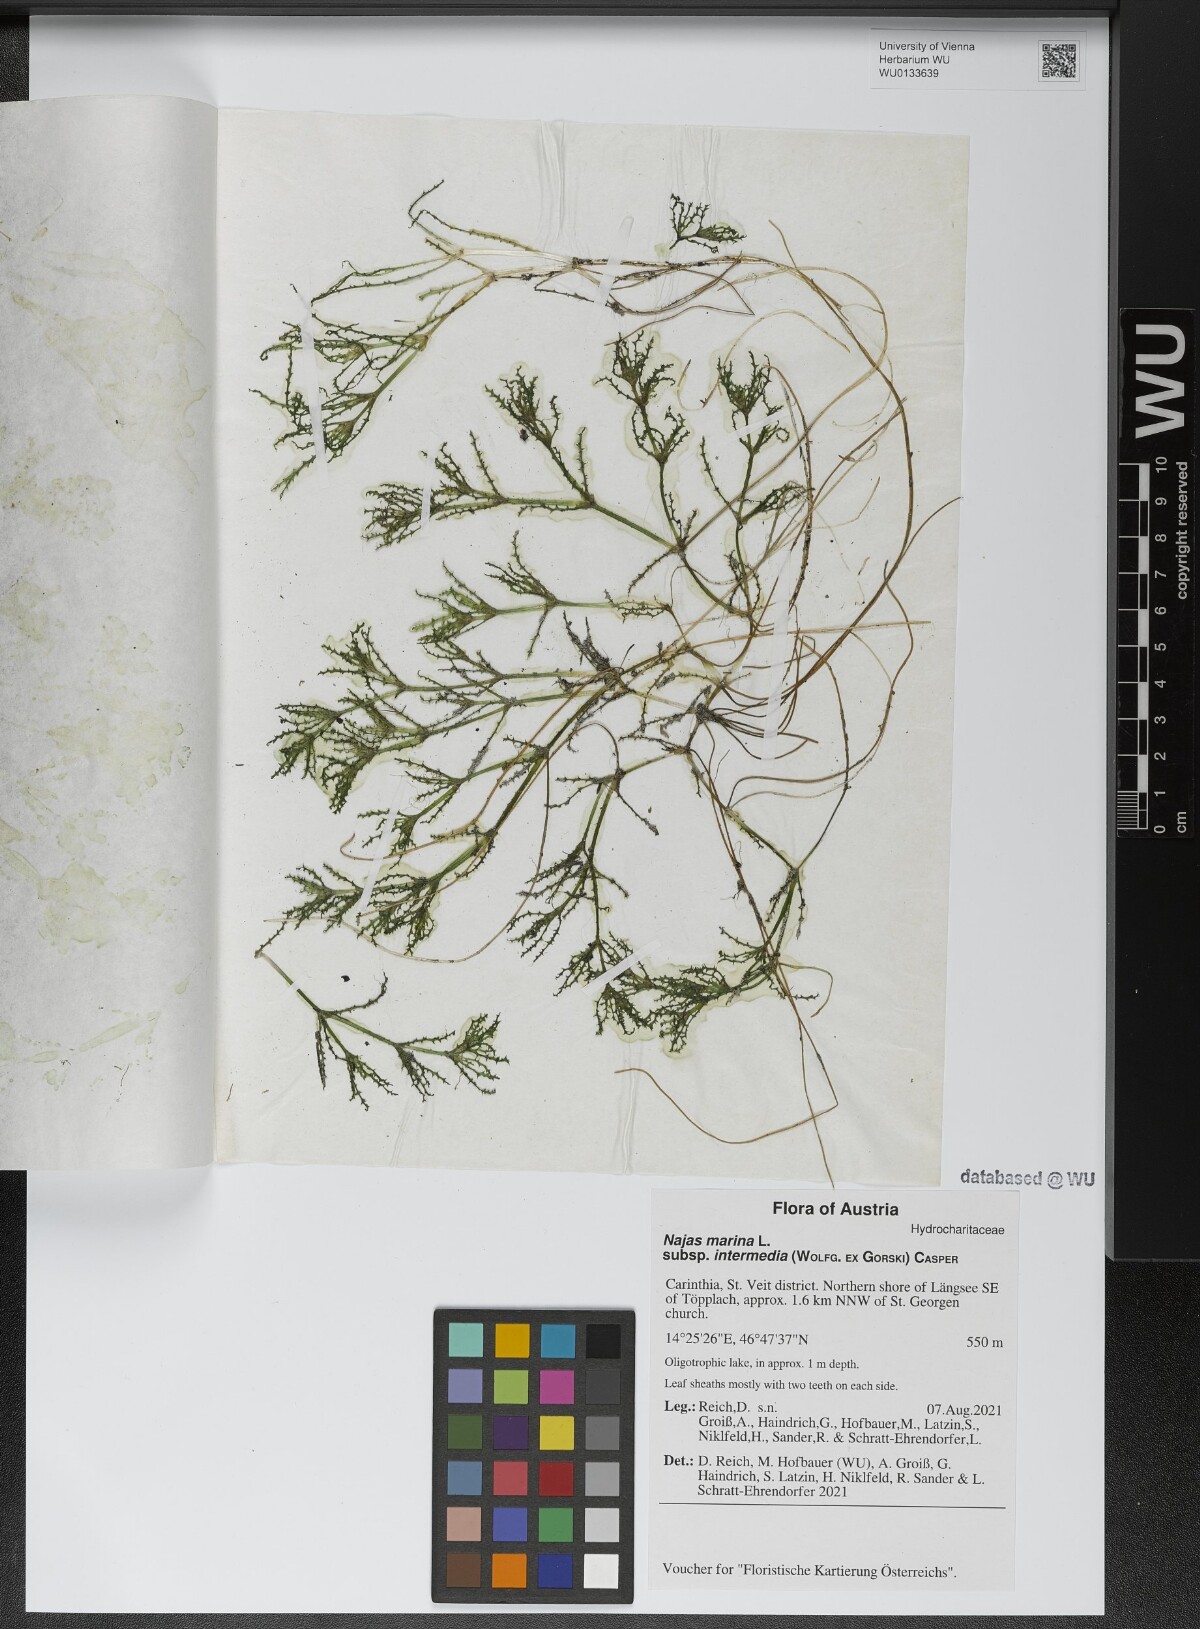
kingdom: Plantae
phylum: Tracheophyta
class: Liliopsida
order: Alismatales
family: Hydrocharitaceae
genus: Najas
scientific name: Najas marina
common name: Holly-leaved naiad
